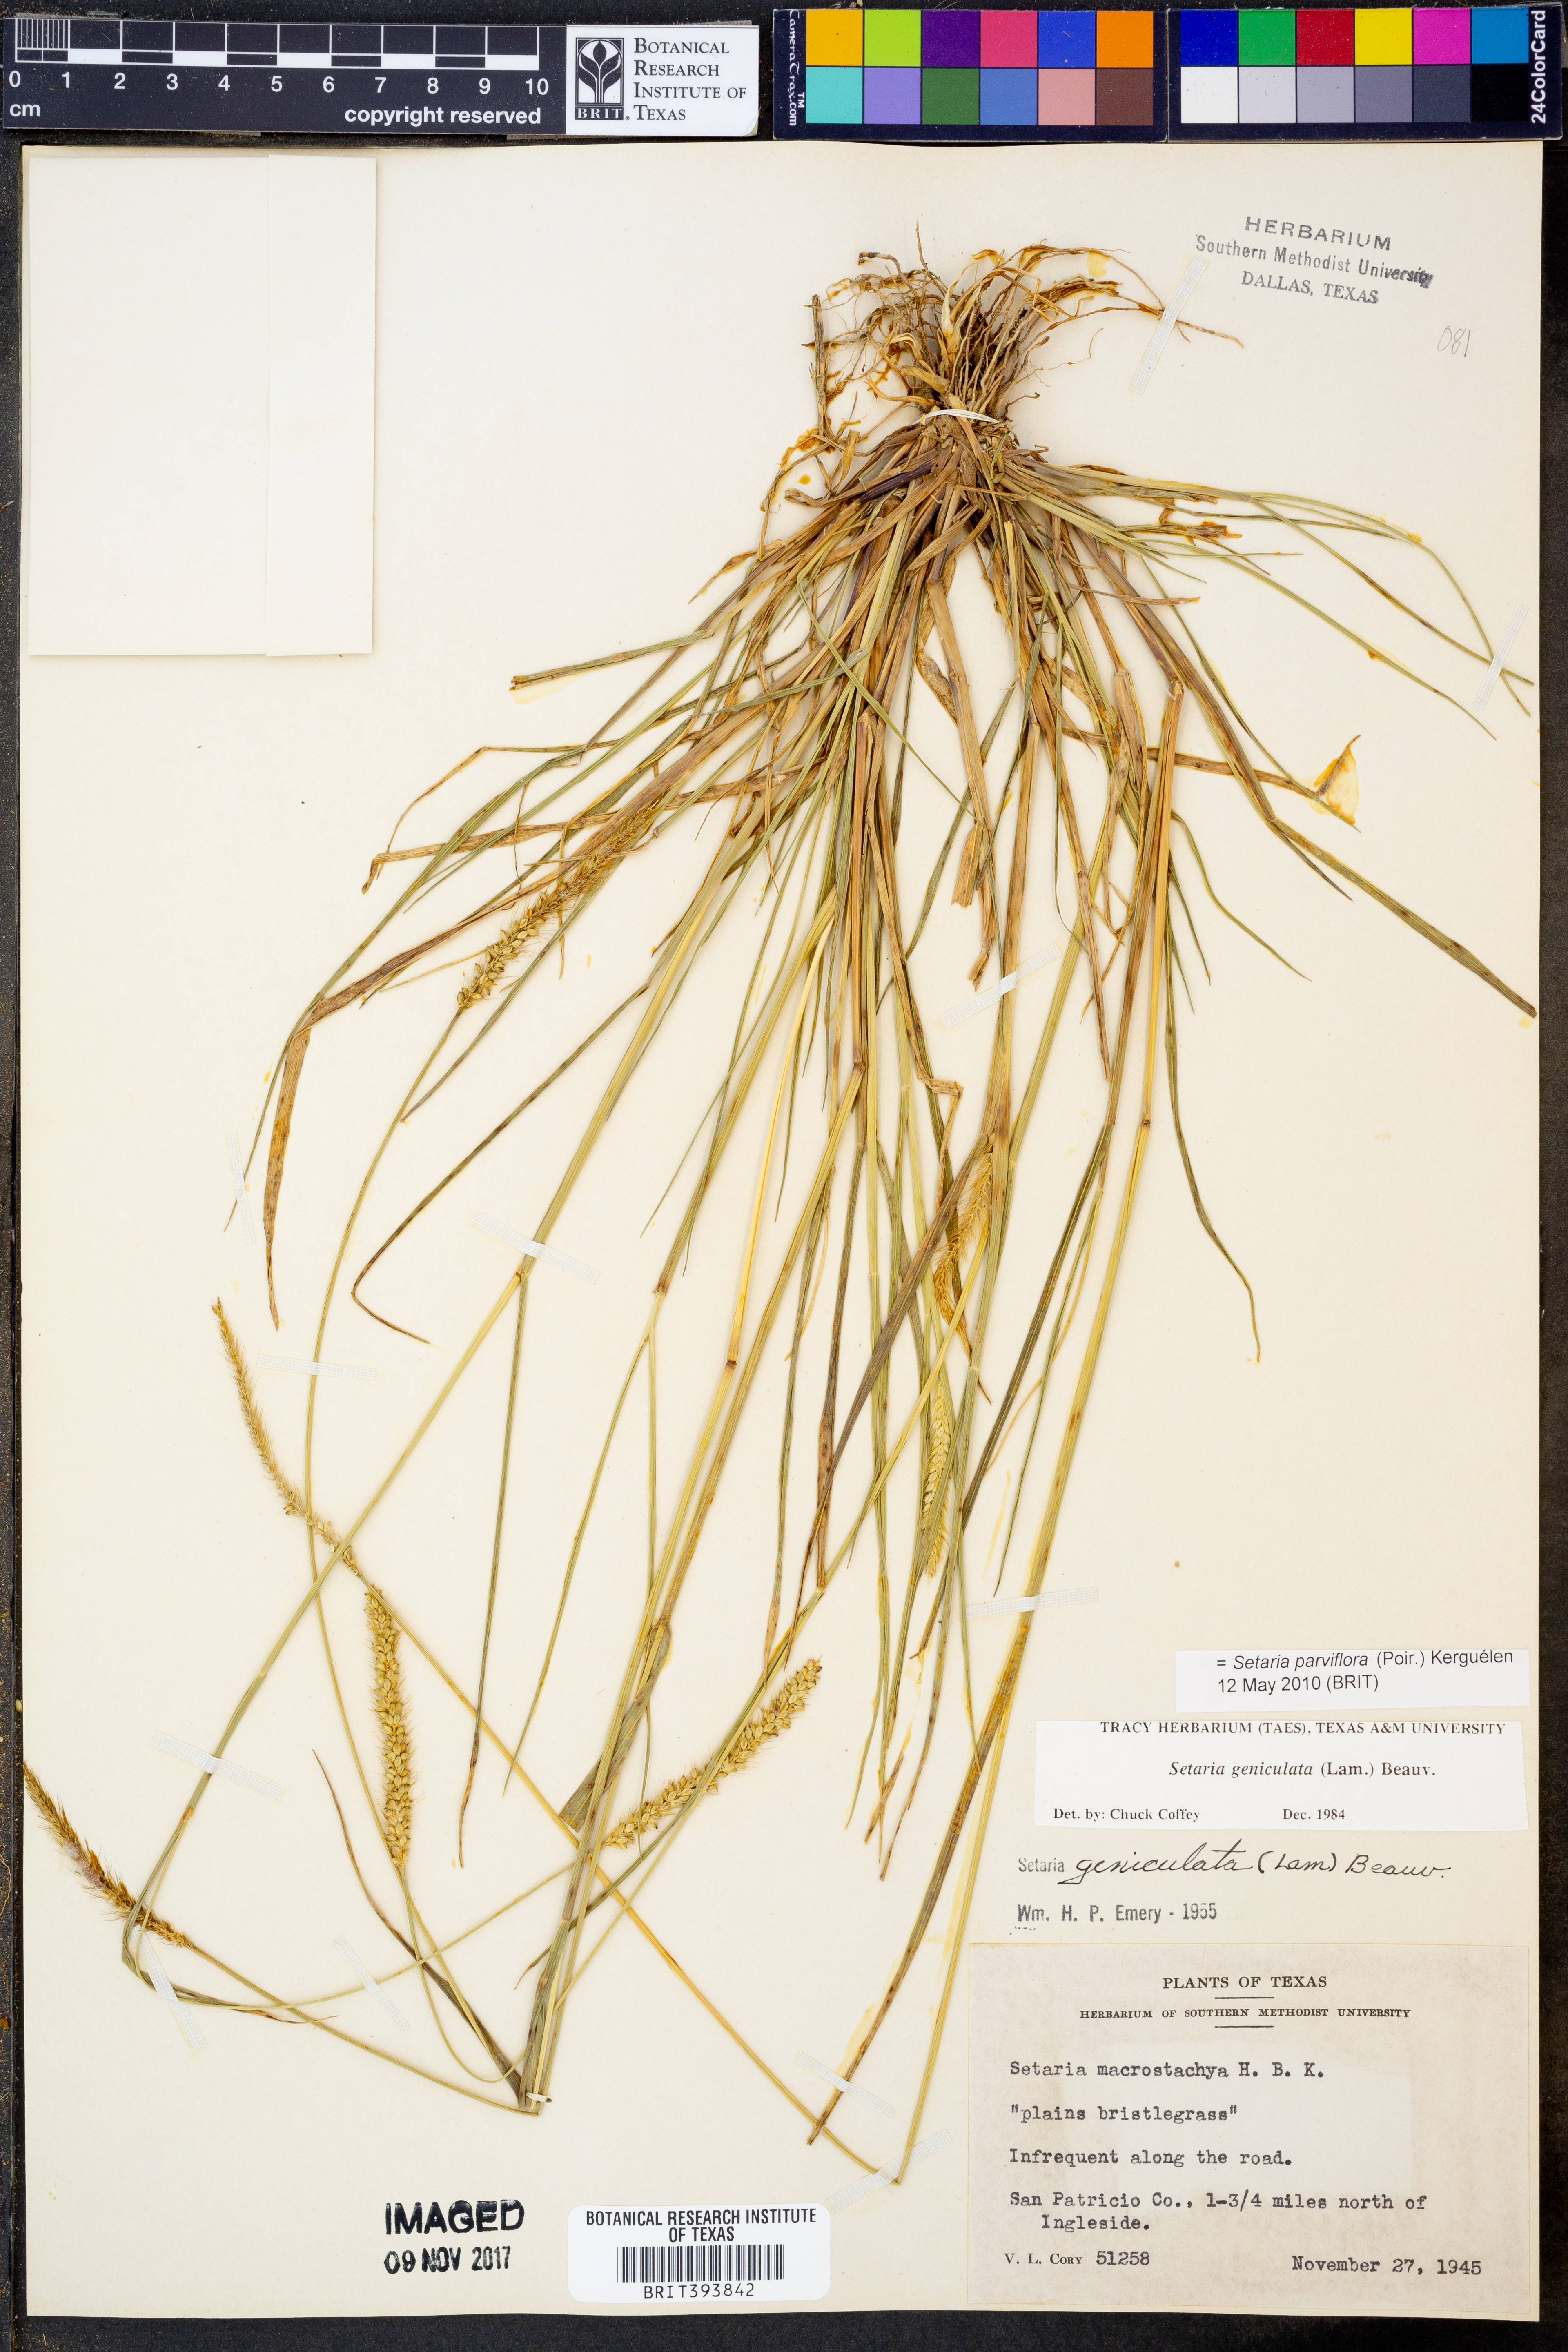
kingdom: Plantae
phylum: Tracheophyta
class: Liliopsida
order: Poales
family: Poaceae
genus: Setaria
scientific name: Setaria parviflora
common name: Knotroot bristle-grass
